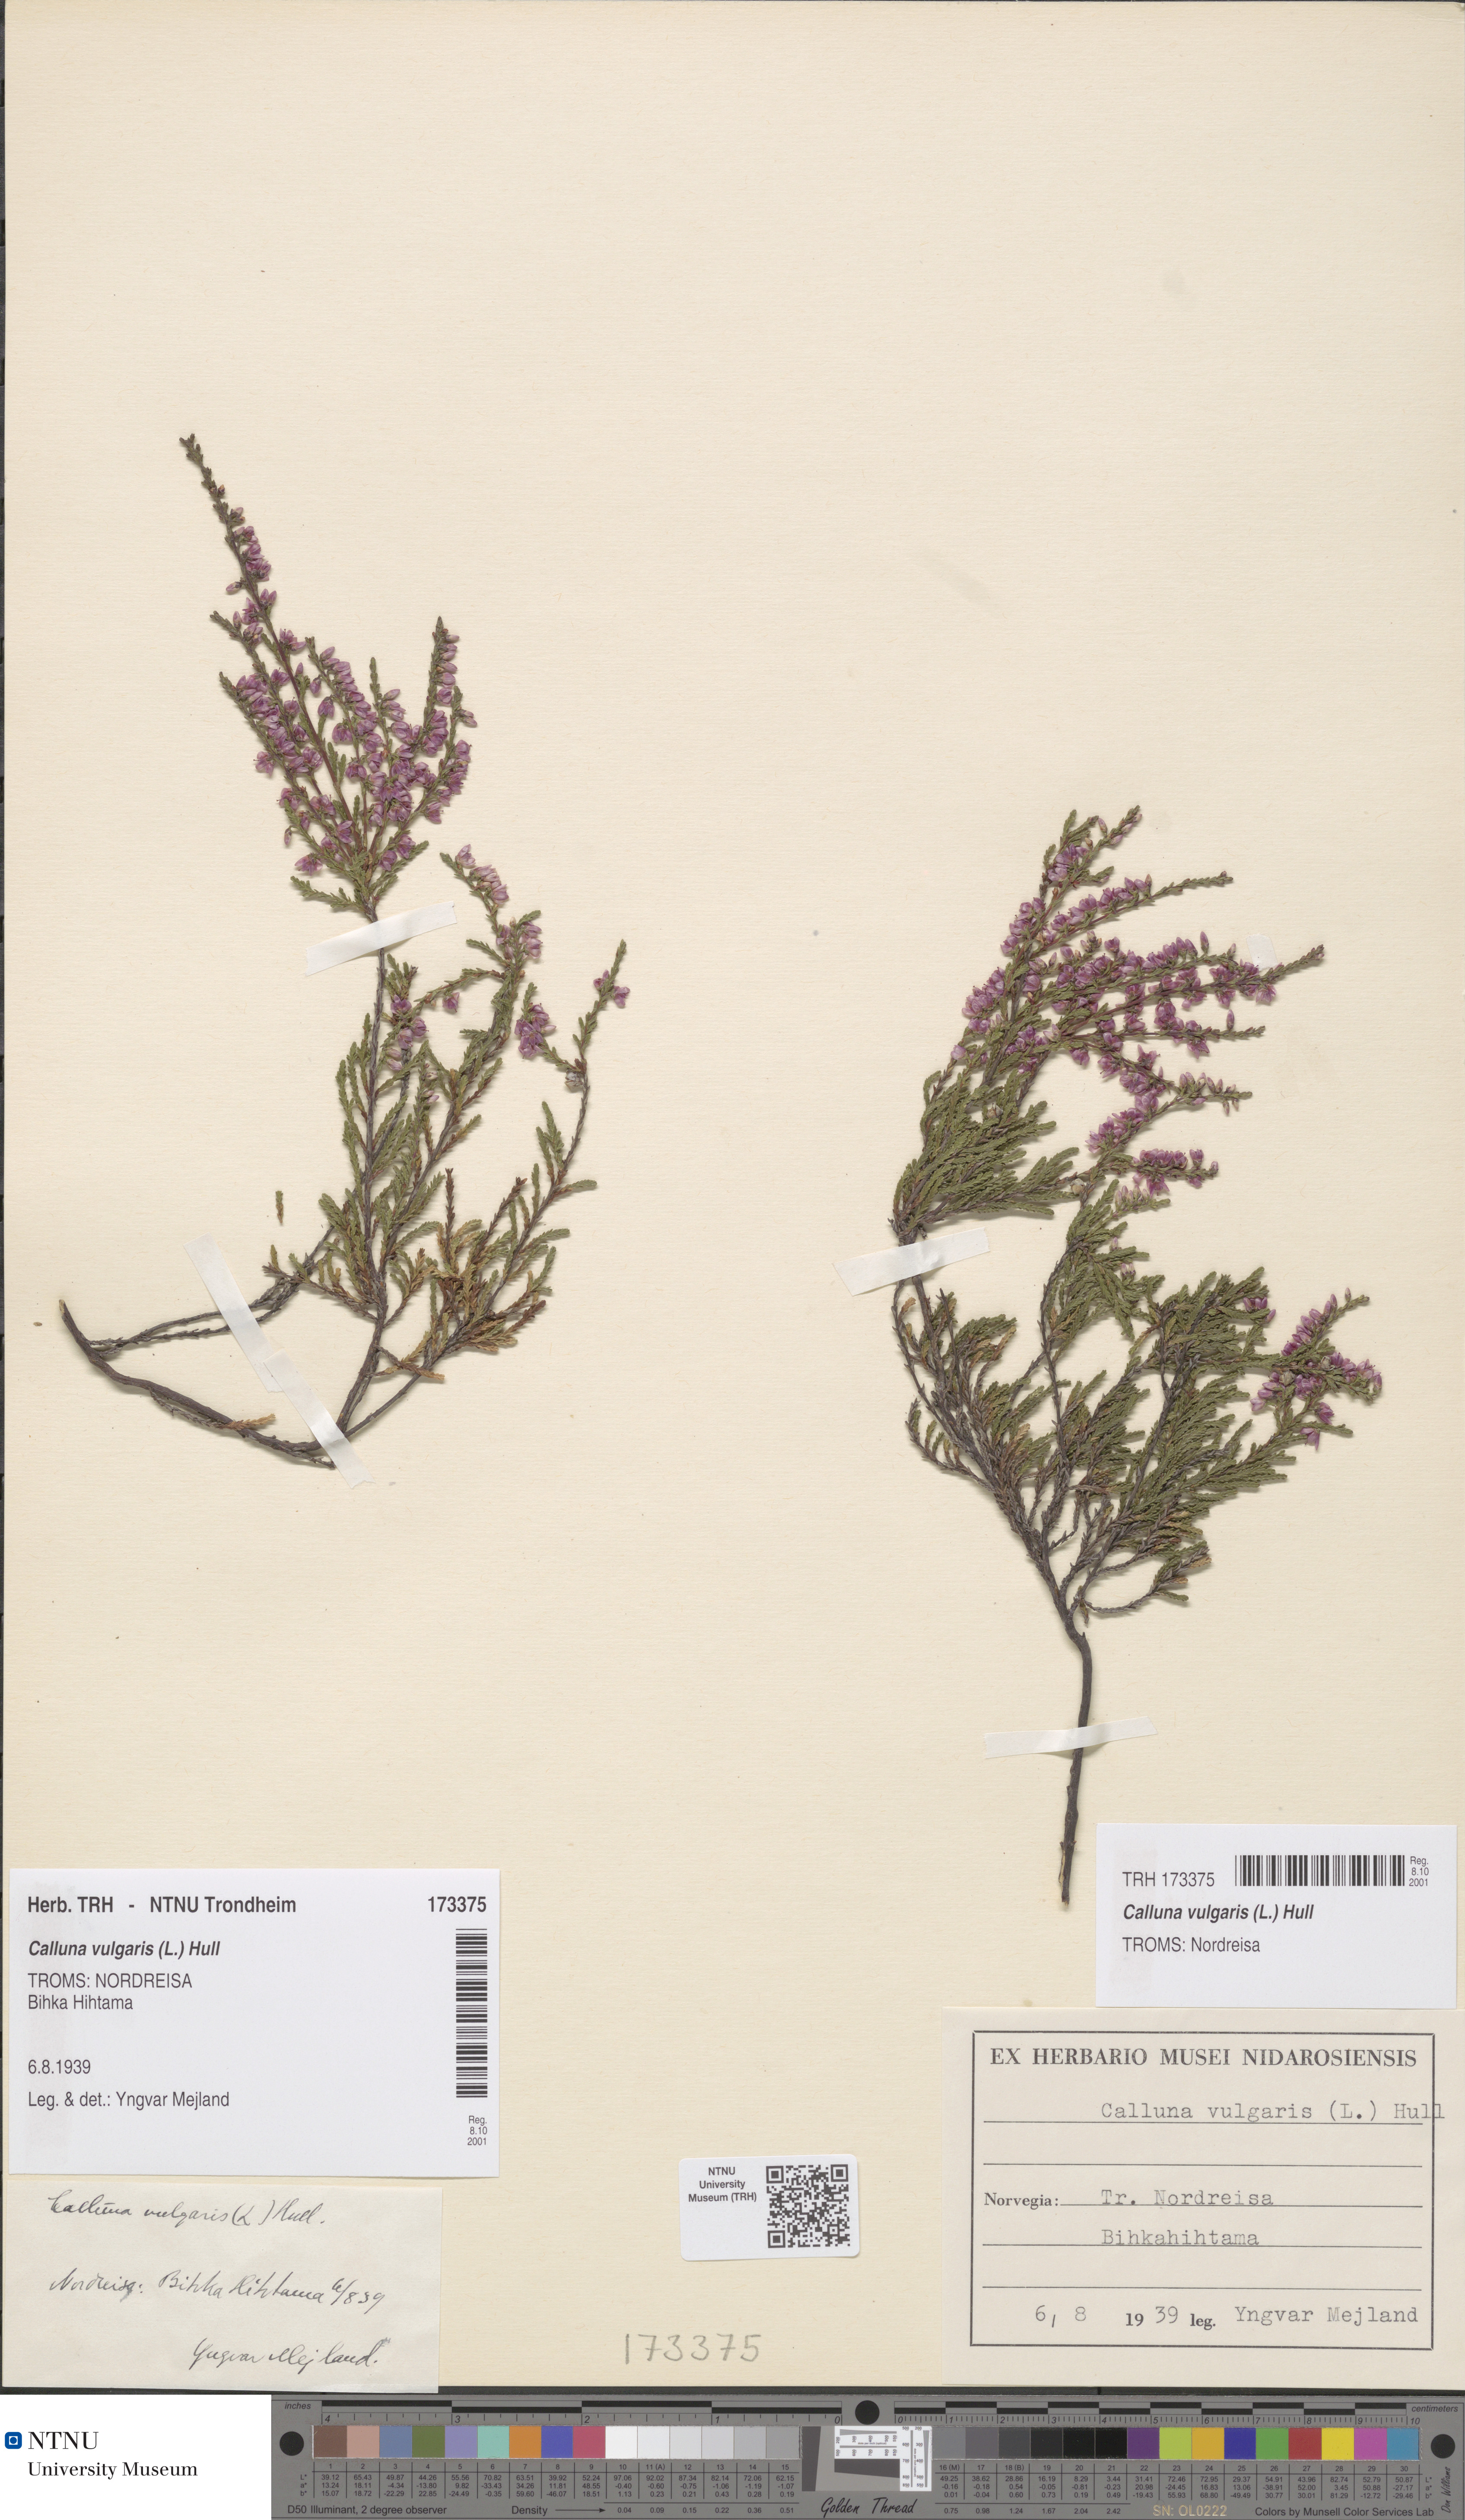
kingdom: Plantae
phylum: Tracheophyta
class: Magnoliopsida
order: Ericales
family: Ericaceae
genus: Calluna
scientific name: Calluna vulgaris
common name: Heather
